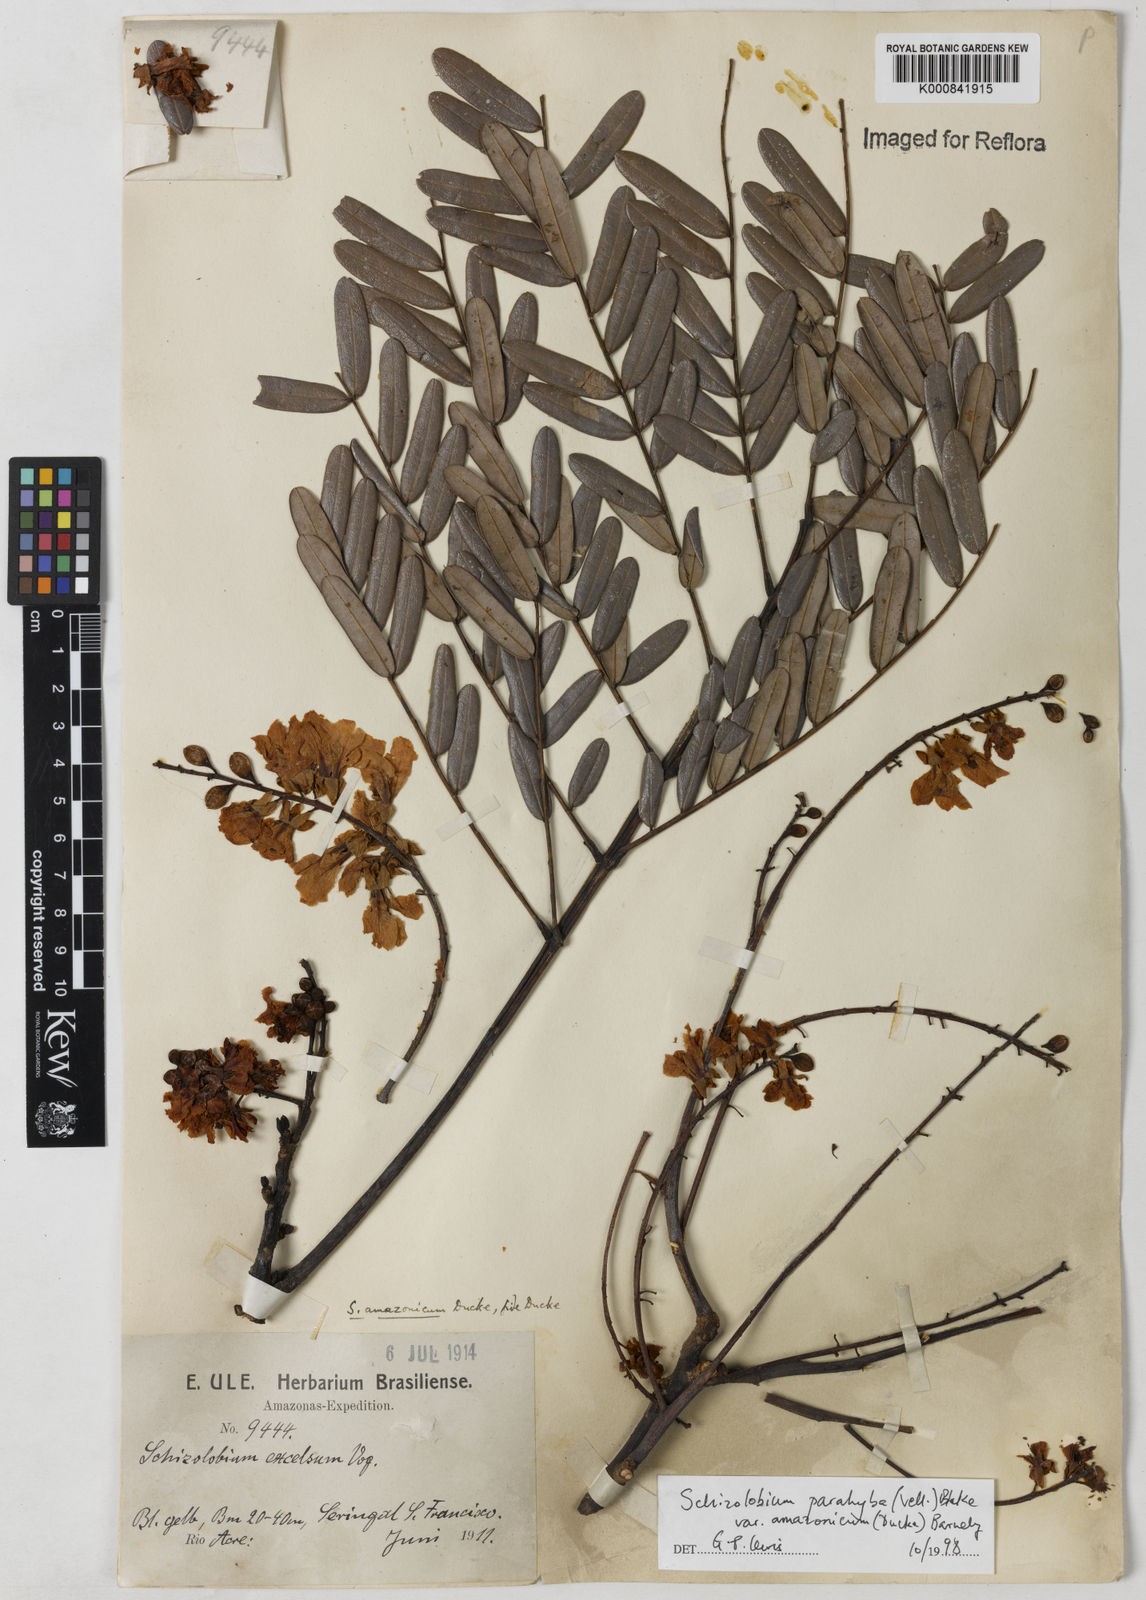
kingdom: Plantae
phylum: Tracheophyta
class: Magnoliopsida
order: Fabales
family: Fabaceae
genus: Schizolobium
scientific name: Schizolobium parahyba
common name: Brazilian firetree
